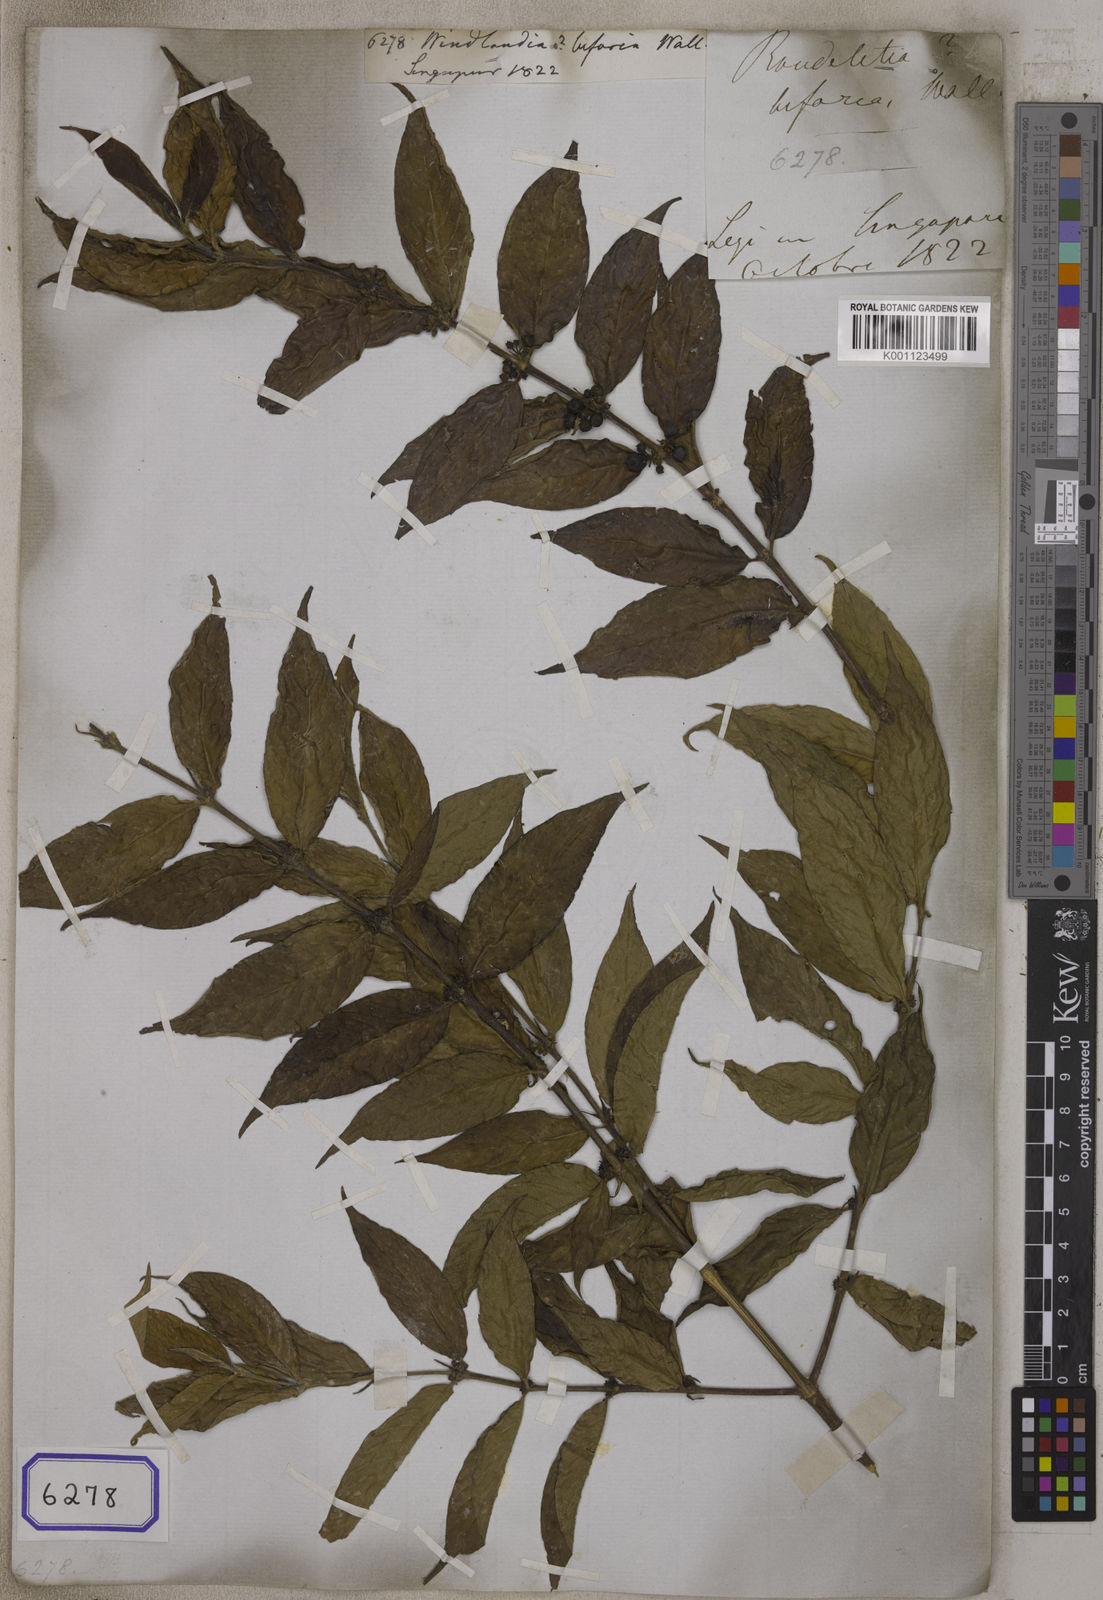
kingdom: Plantae
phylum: Tracheophyta
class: Magnoliopsida
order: Gentianales
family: Rubiaceae
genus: Urophyllum
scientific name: Urophyllum hirsutum
